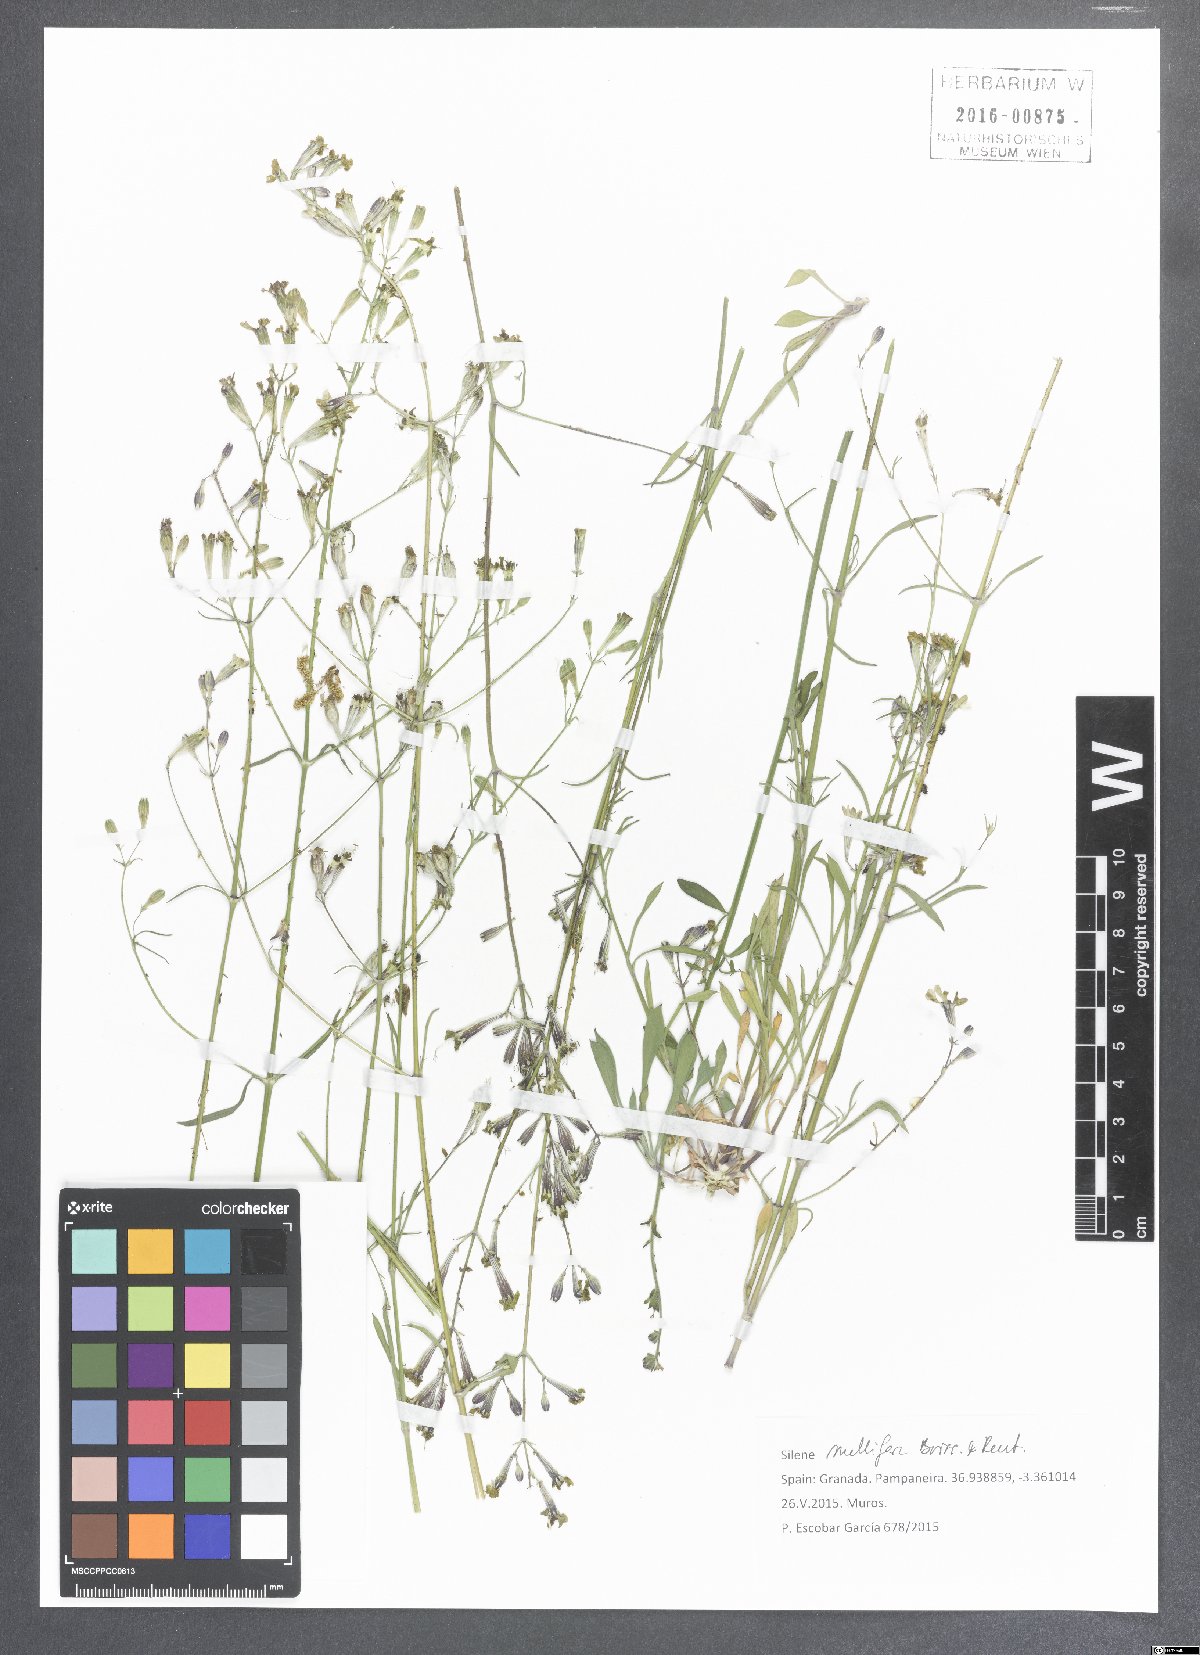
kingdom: Plantae
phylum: Tracheophyta
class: Magnoliopsida
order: Caryophyllales
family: Caryophyllaceae
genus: Silene
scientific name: Silene mellifera
